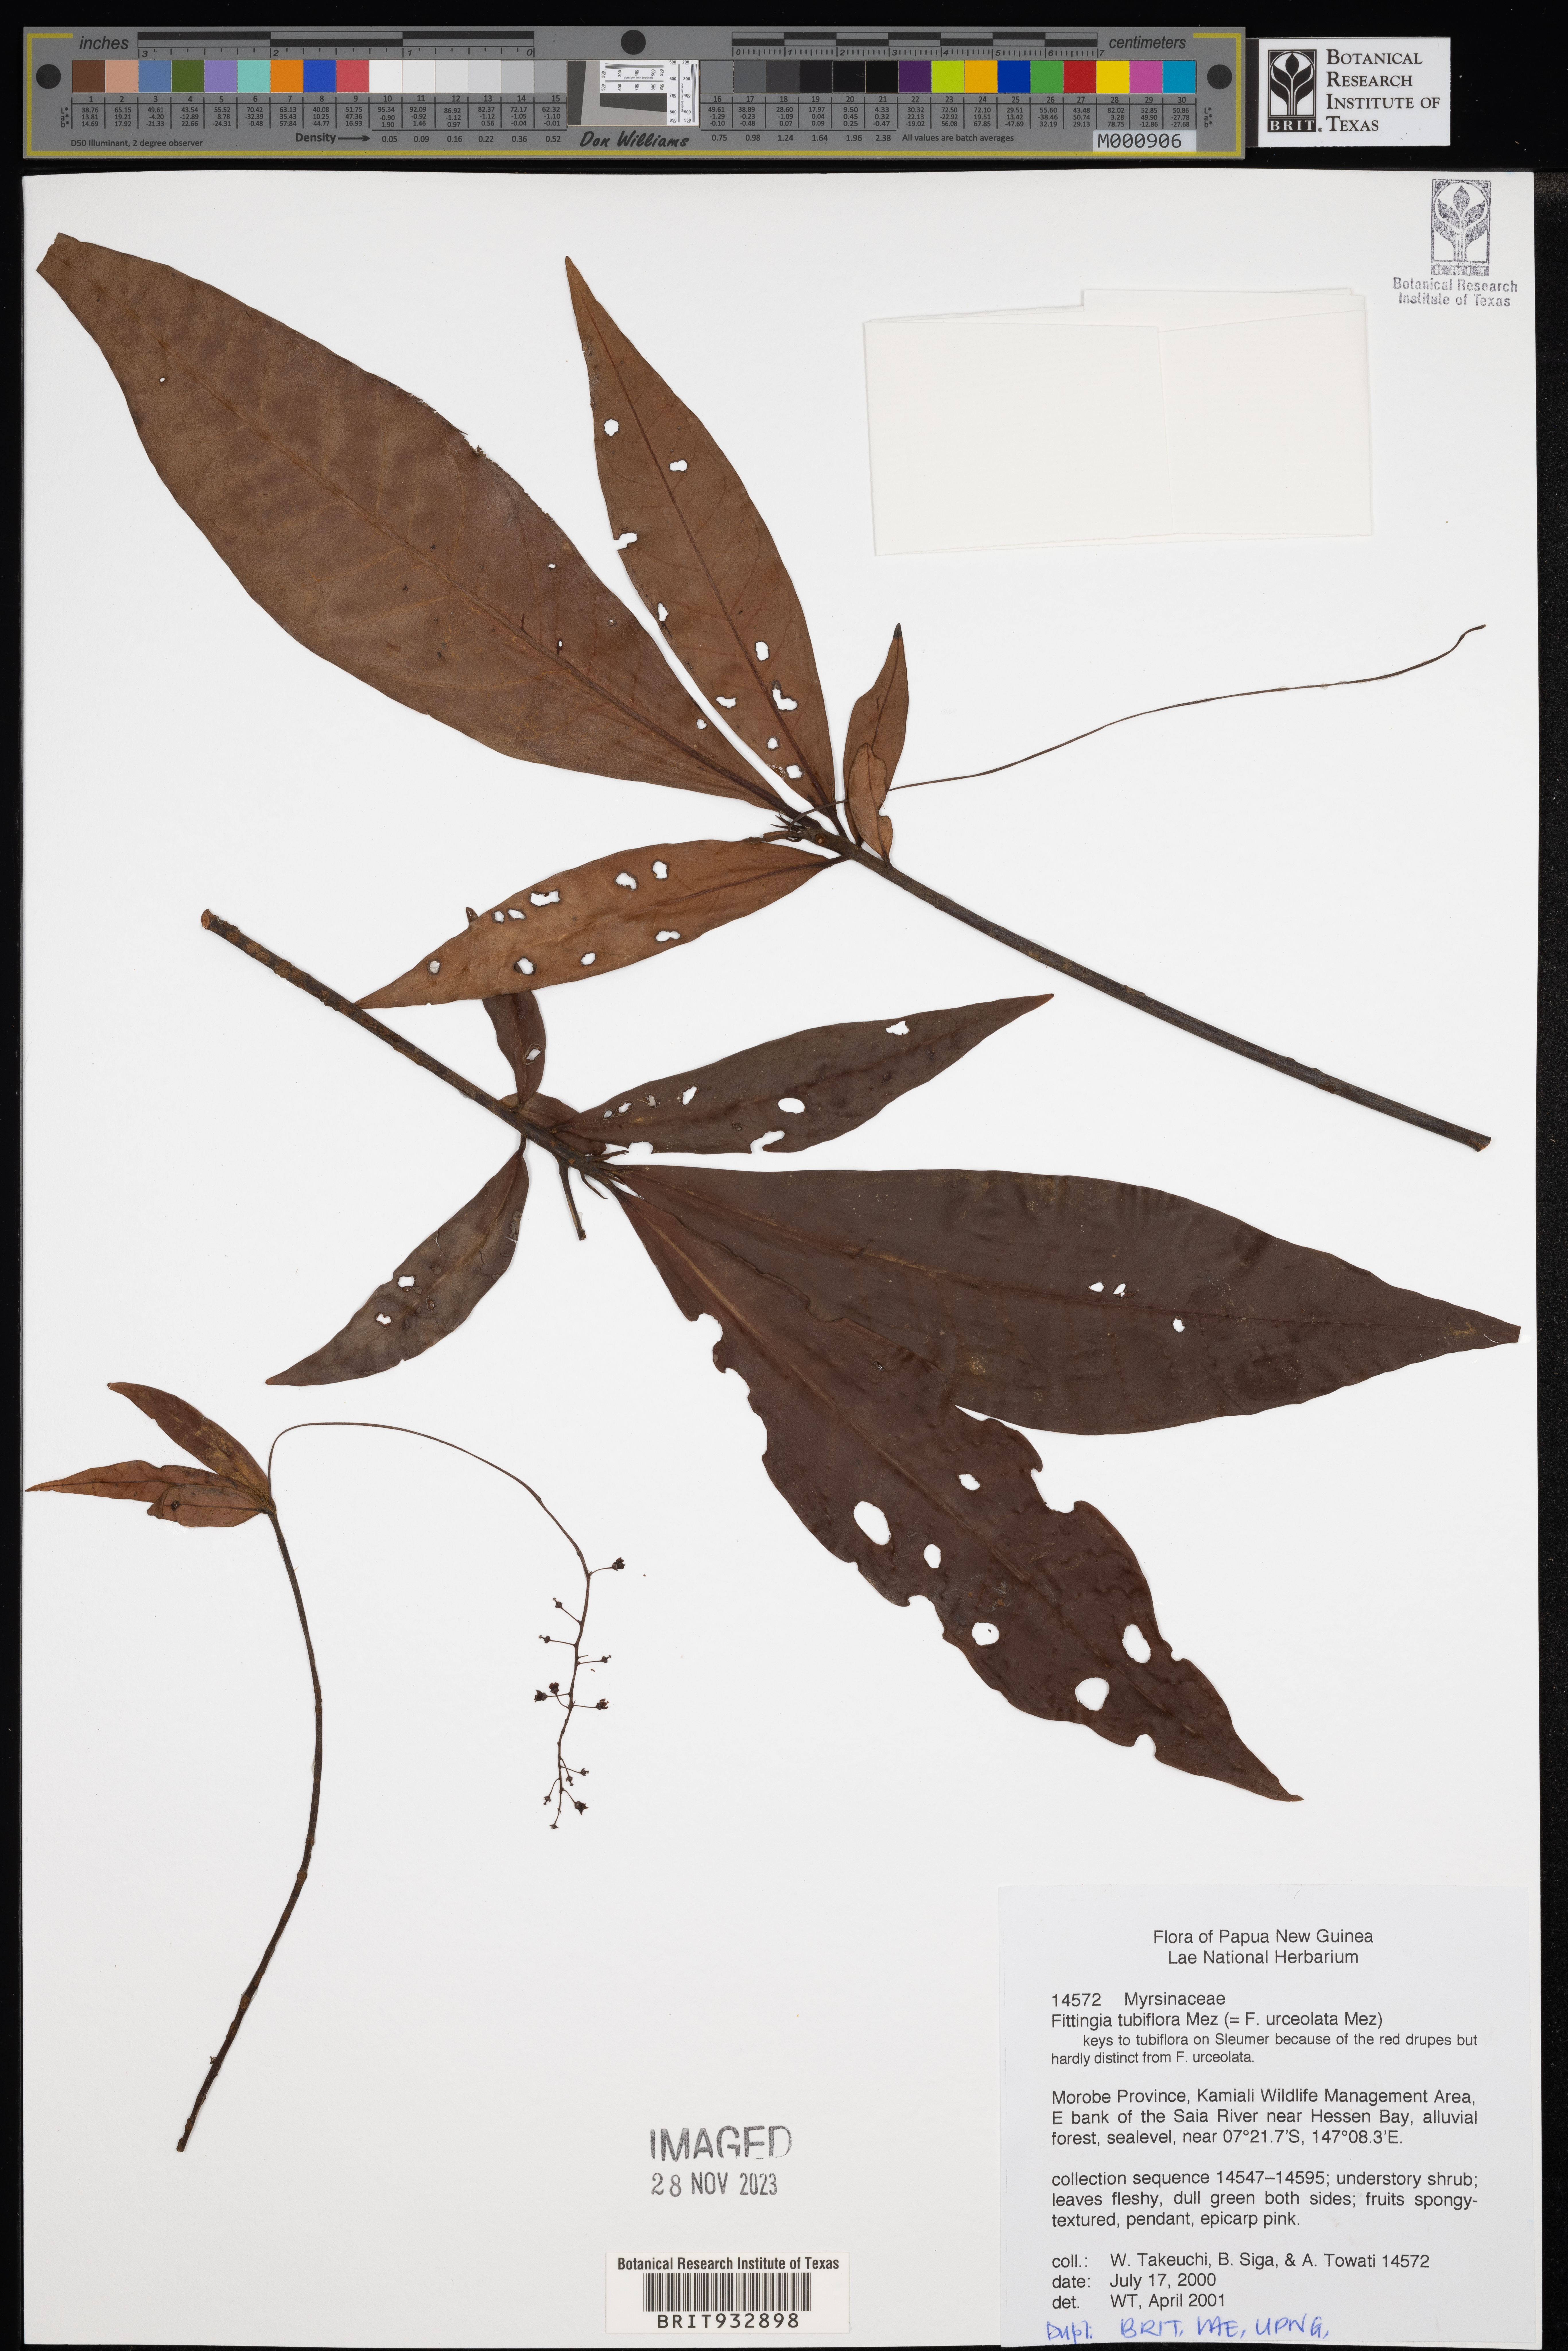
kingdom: Plantae
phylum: Tracheophyta
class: Magnoliopsida
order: Ericales
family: Primulaceae
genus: Fittingia
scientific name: Fittingia
